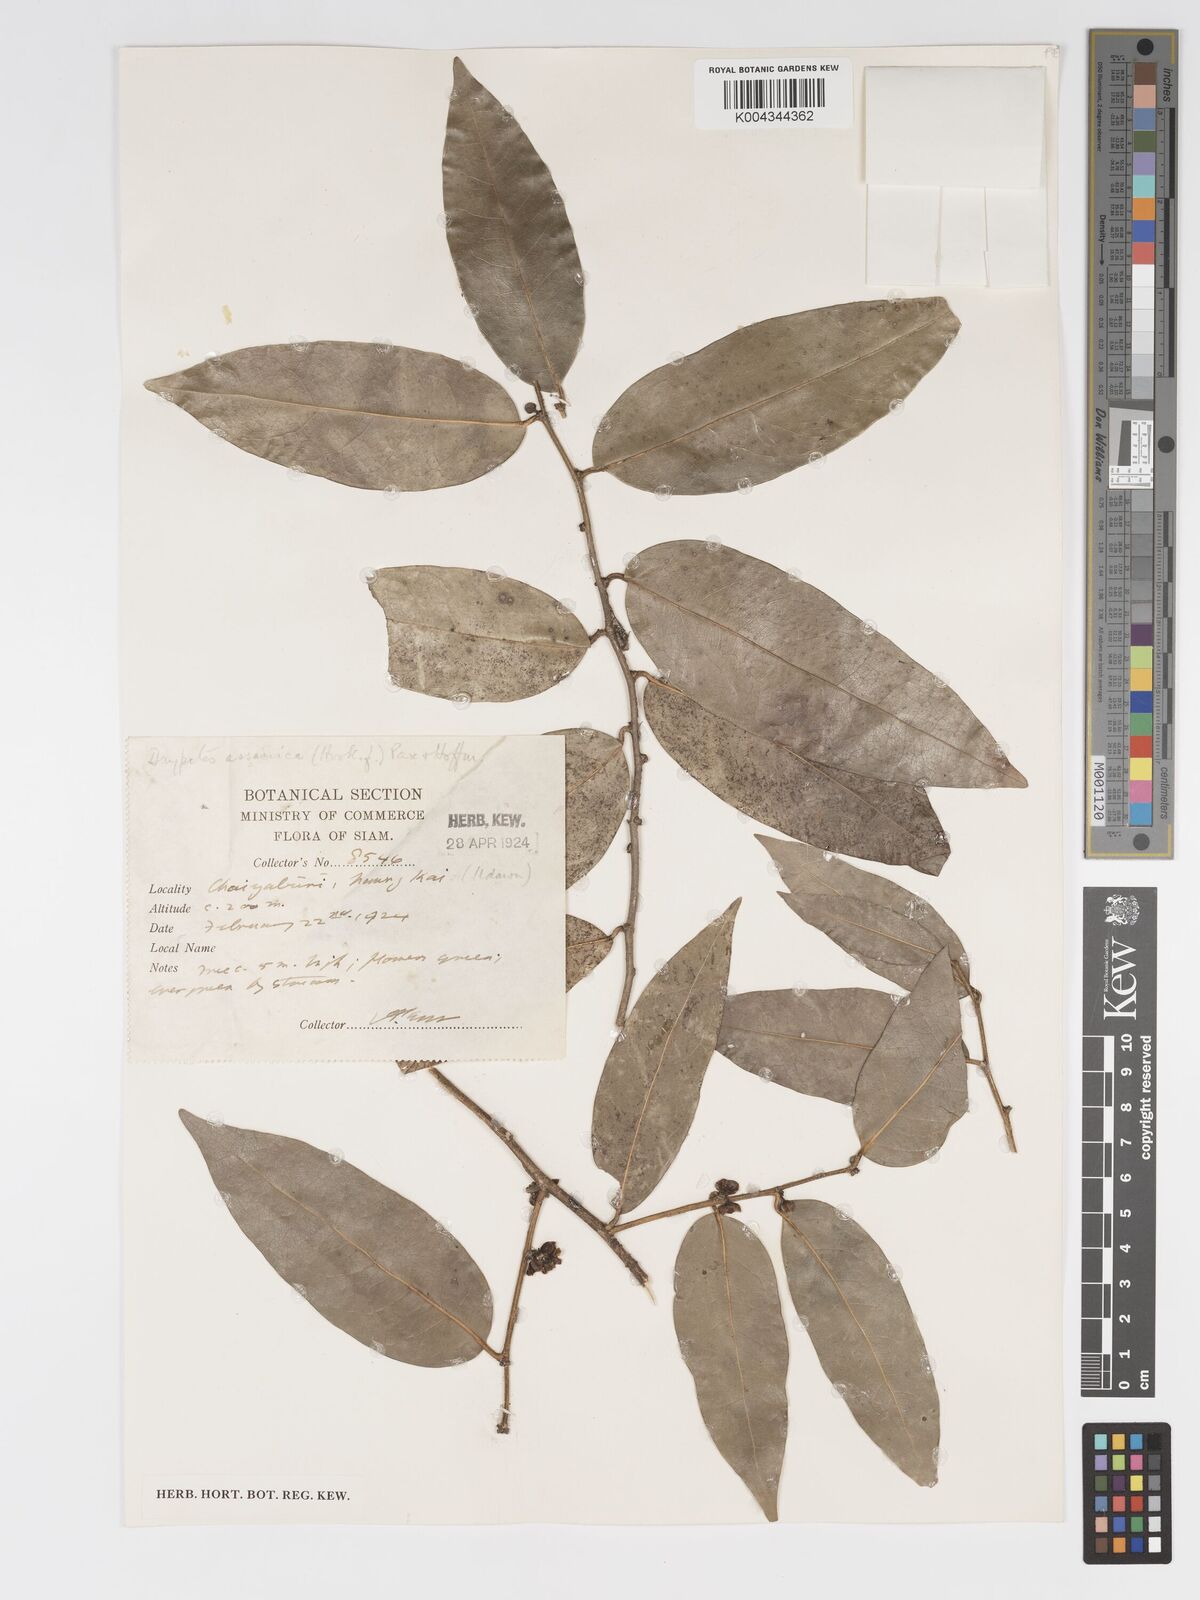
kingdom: Plantae
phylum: Tracheophyta
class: Magnoliopsida
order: Malpighiales
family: Putranjivaceae
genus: Drypetes
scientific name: Drypetes assamica
